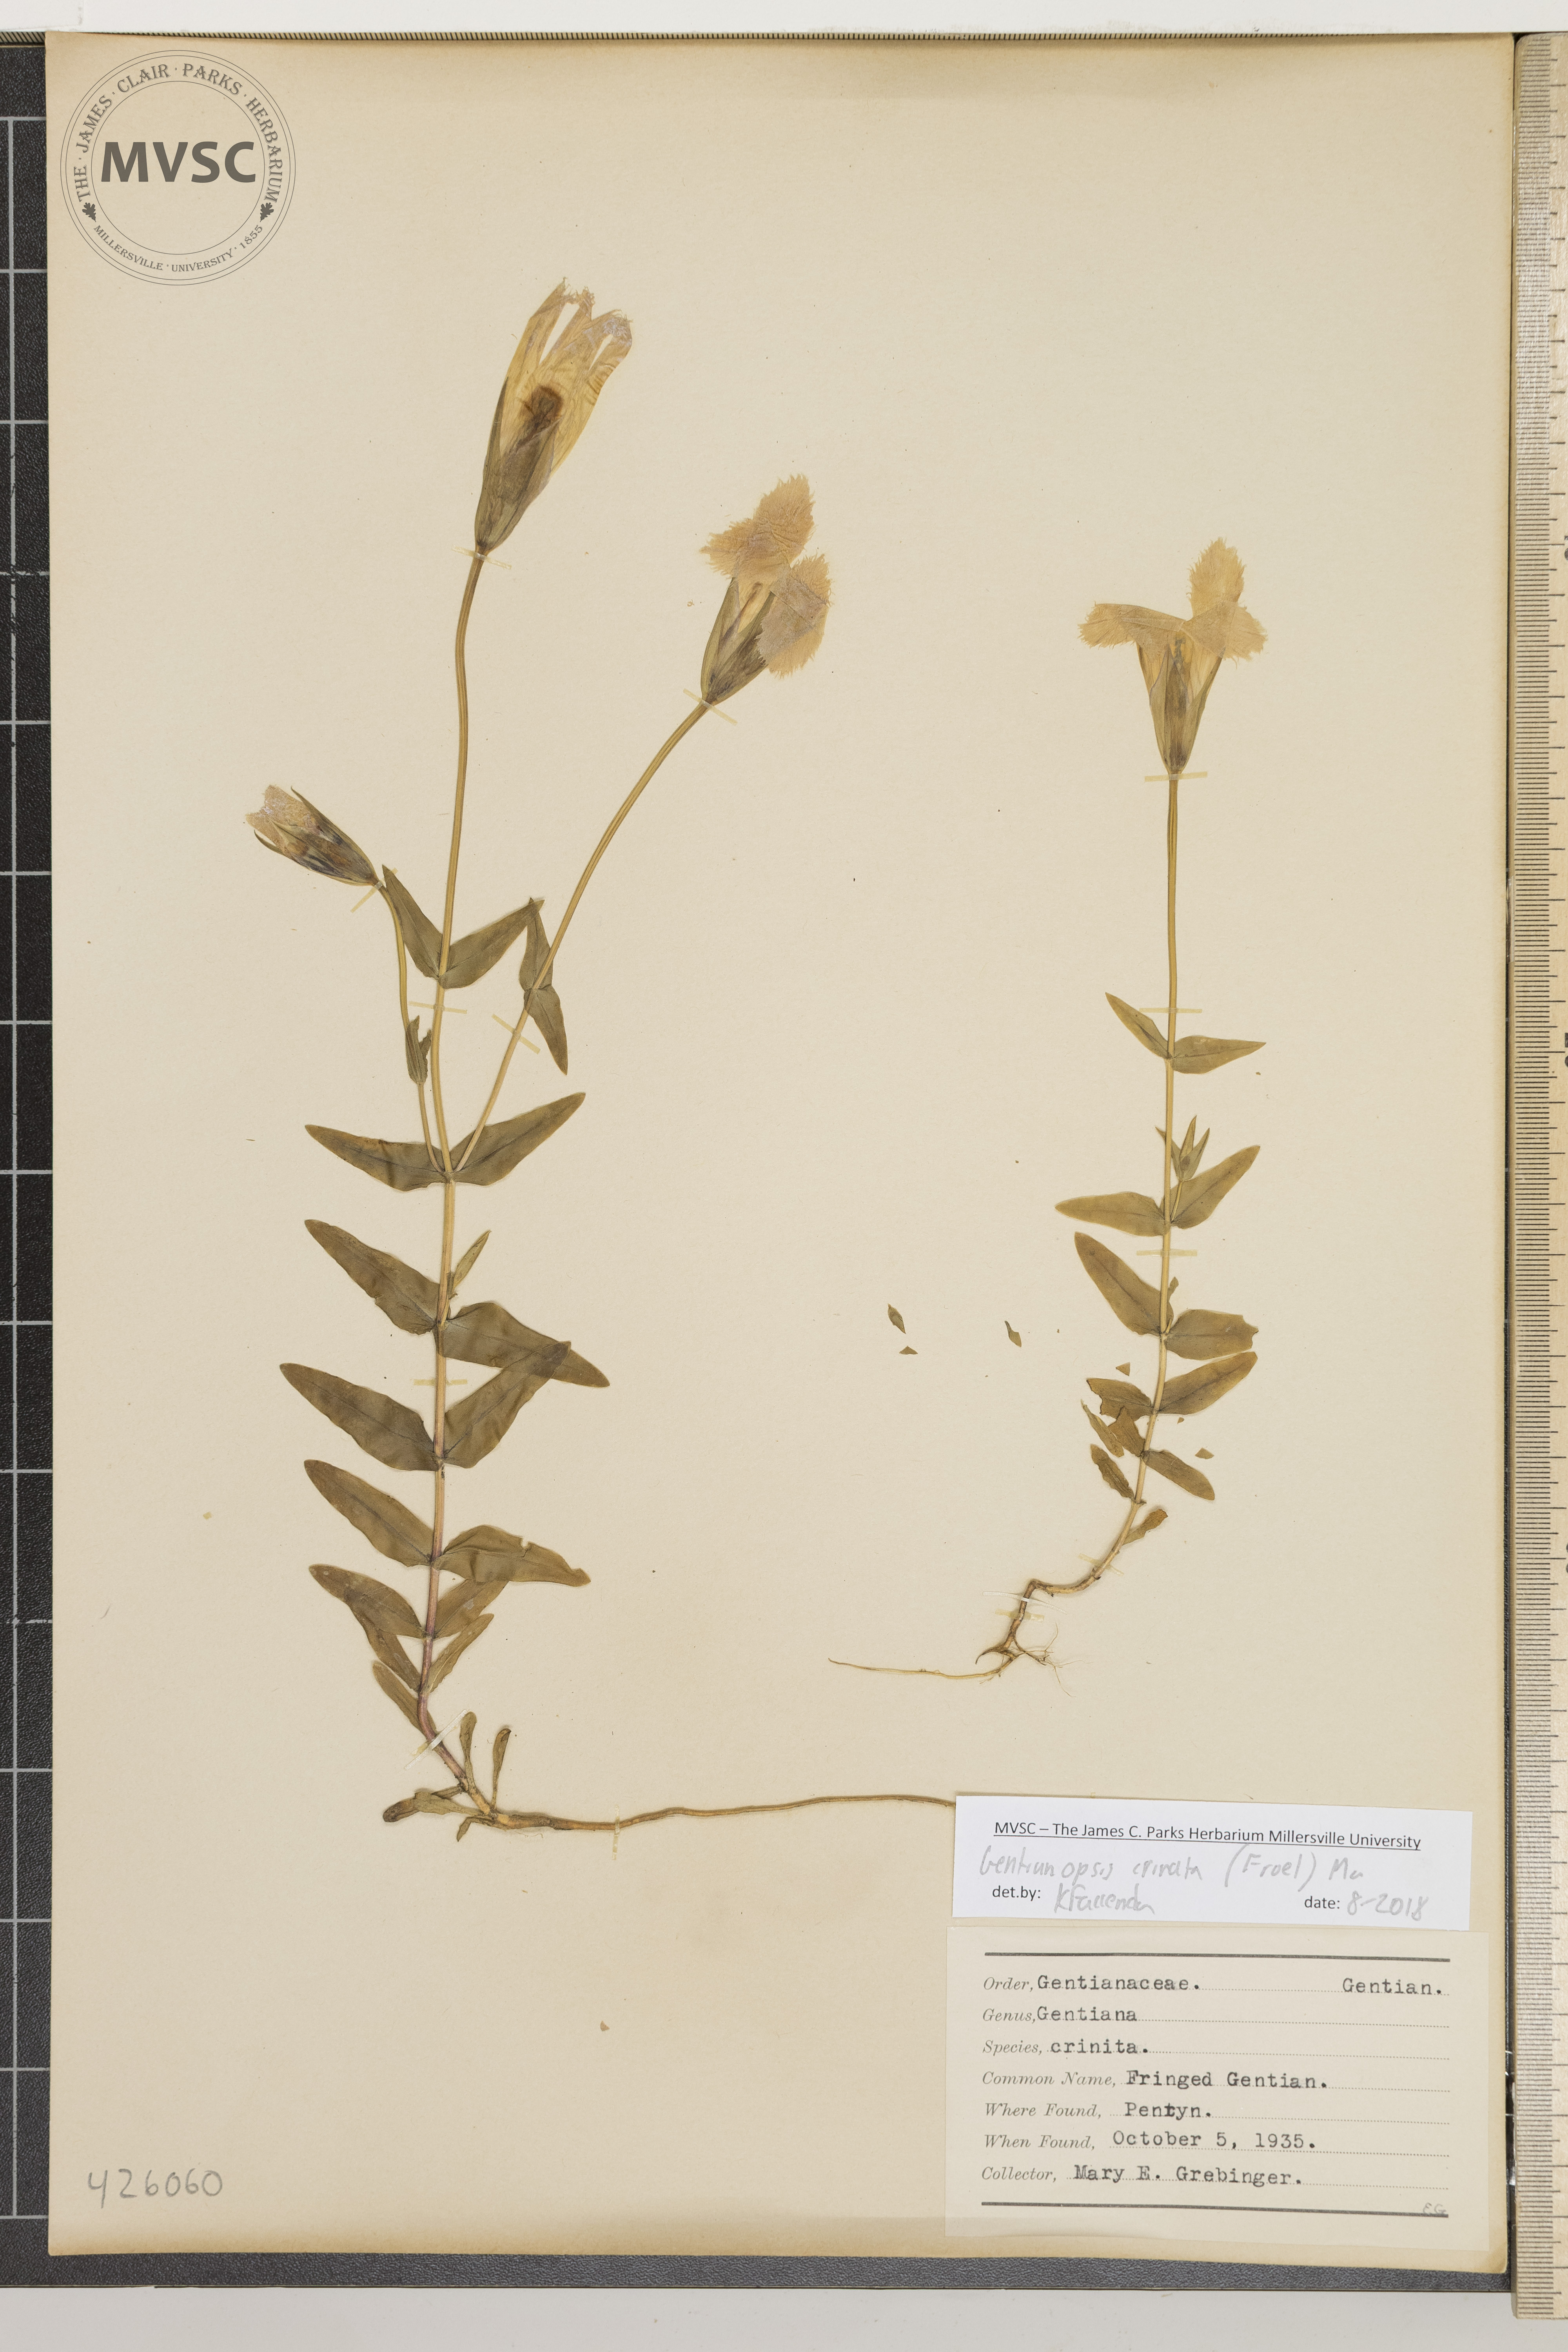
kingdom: Plantae
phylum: Tracheophyta
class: Magnoliopsida
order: Gentianales
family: Gentianaceae
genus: Gentianopsis
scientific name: Gentianopsis crinita
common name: Fringed gentian
